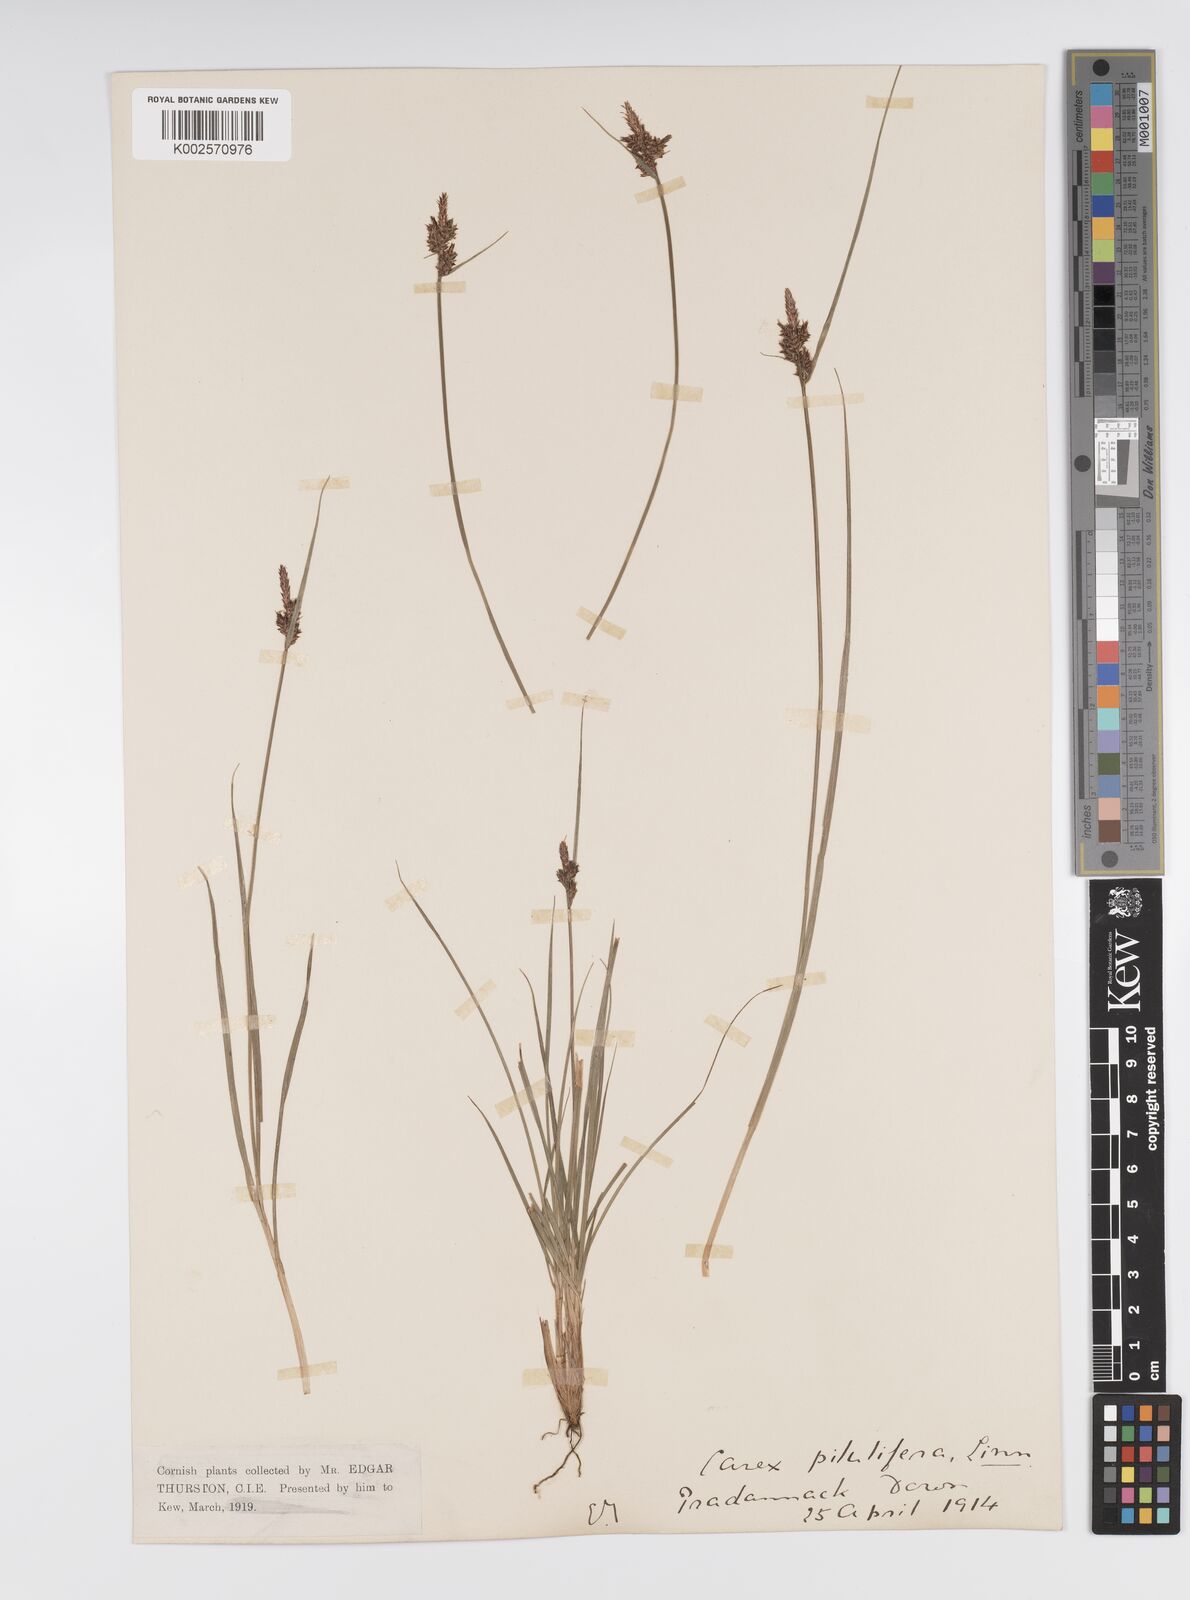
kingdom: Plantae
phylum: Tracheophyta
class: Liliopsida
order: Poales
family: Cyperaceae
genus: Carex
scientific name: Carex pilulifera
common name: Pill sedge
